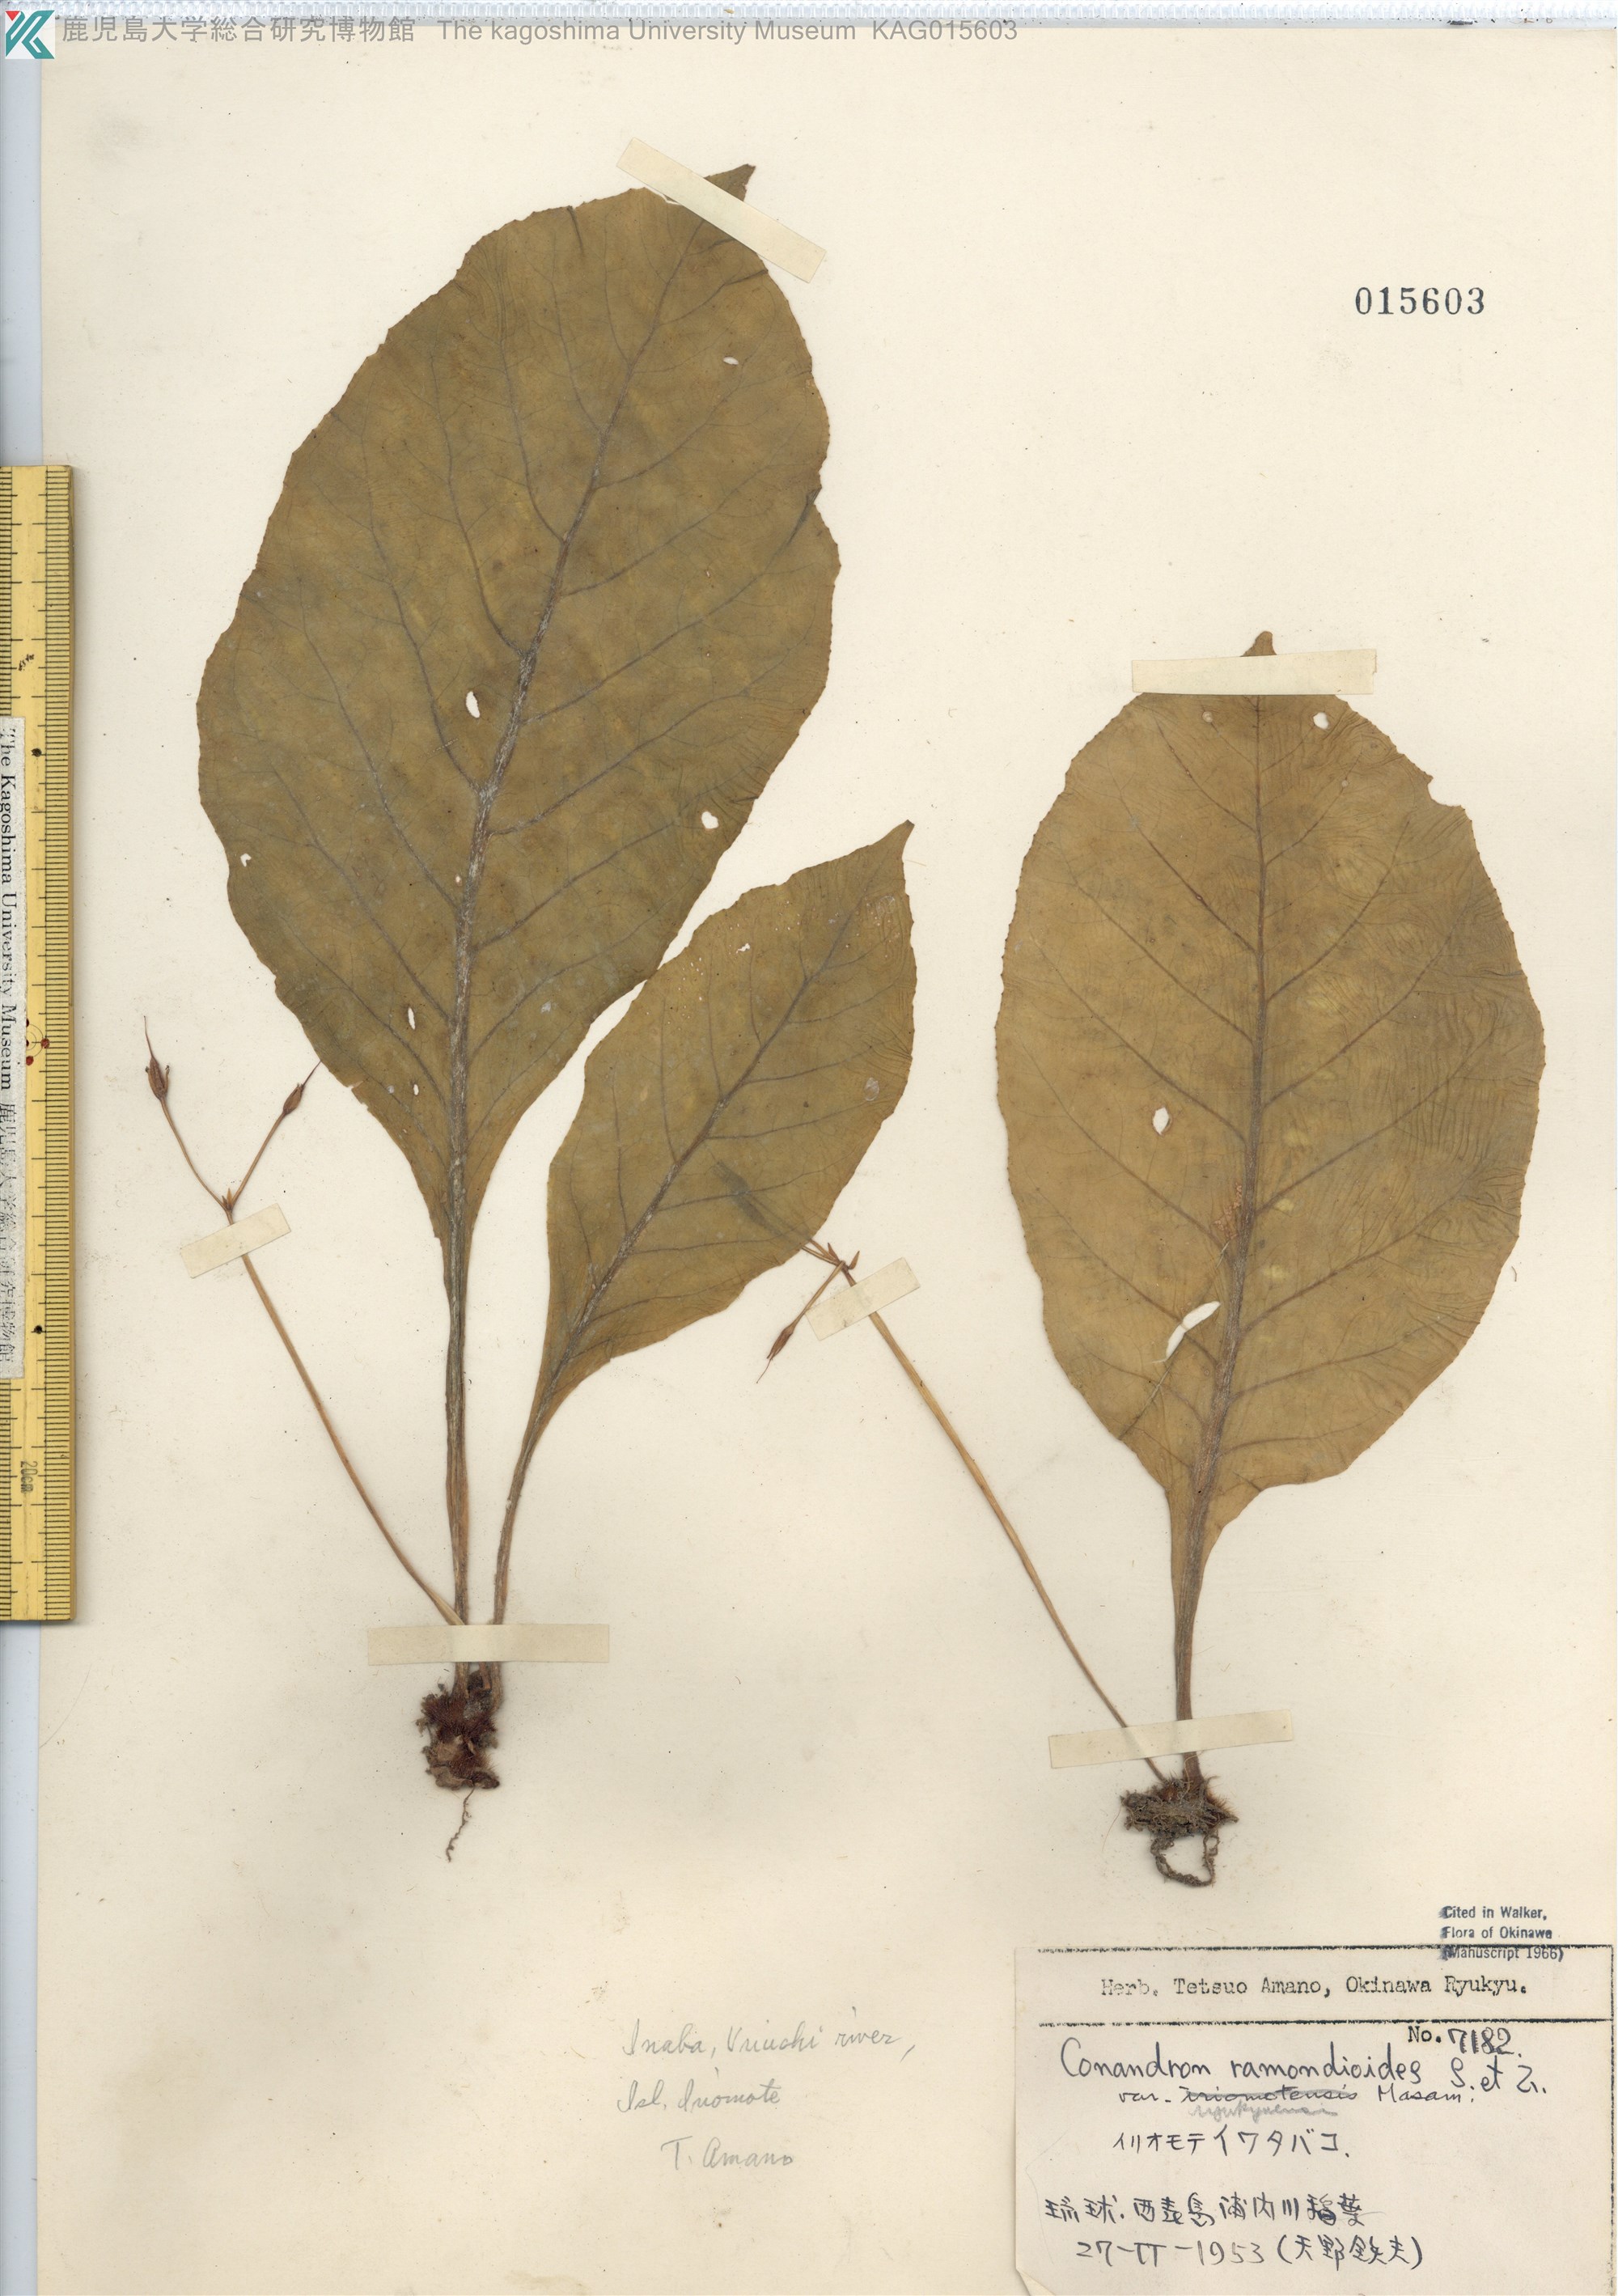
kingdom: Plantae
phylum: Tracheophyta
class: Magnoliopsida
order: Lamiales
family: Gesneriaceae
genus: Conandron
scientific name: Conandron ramondioides
